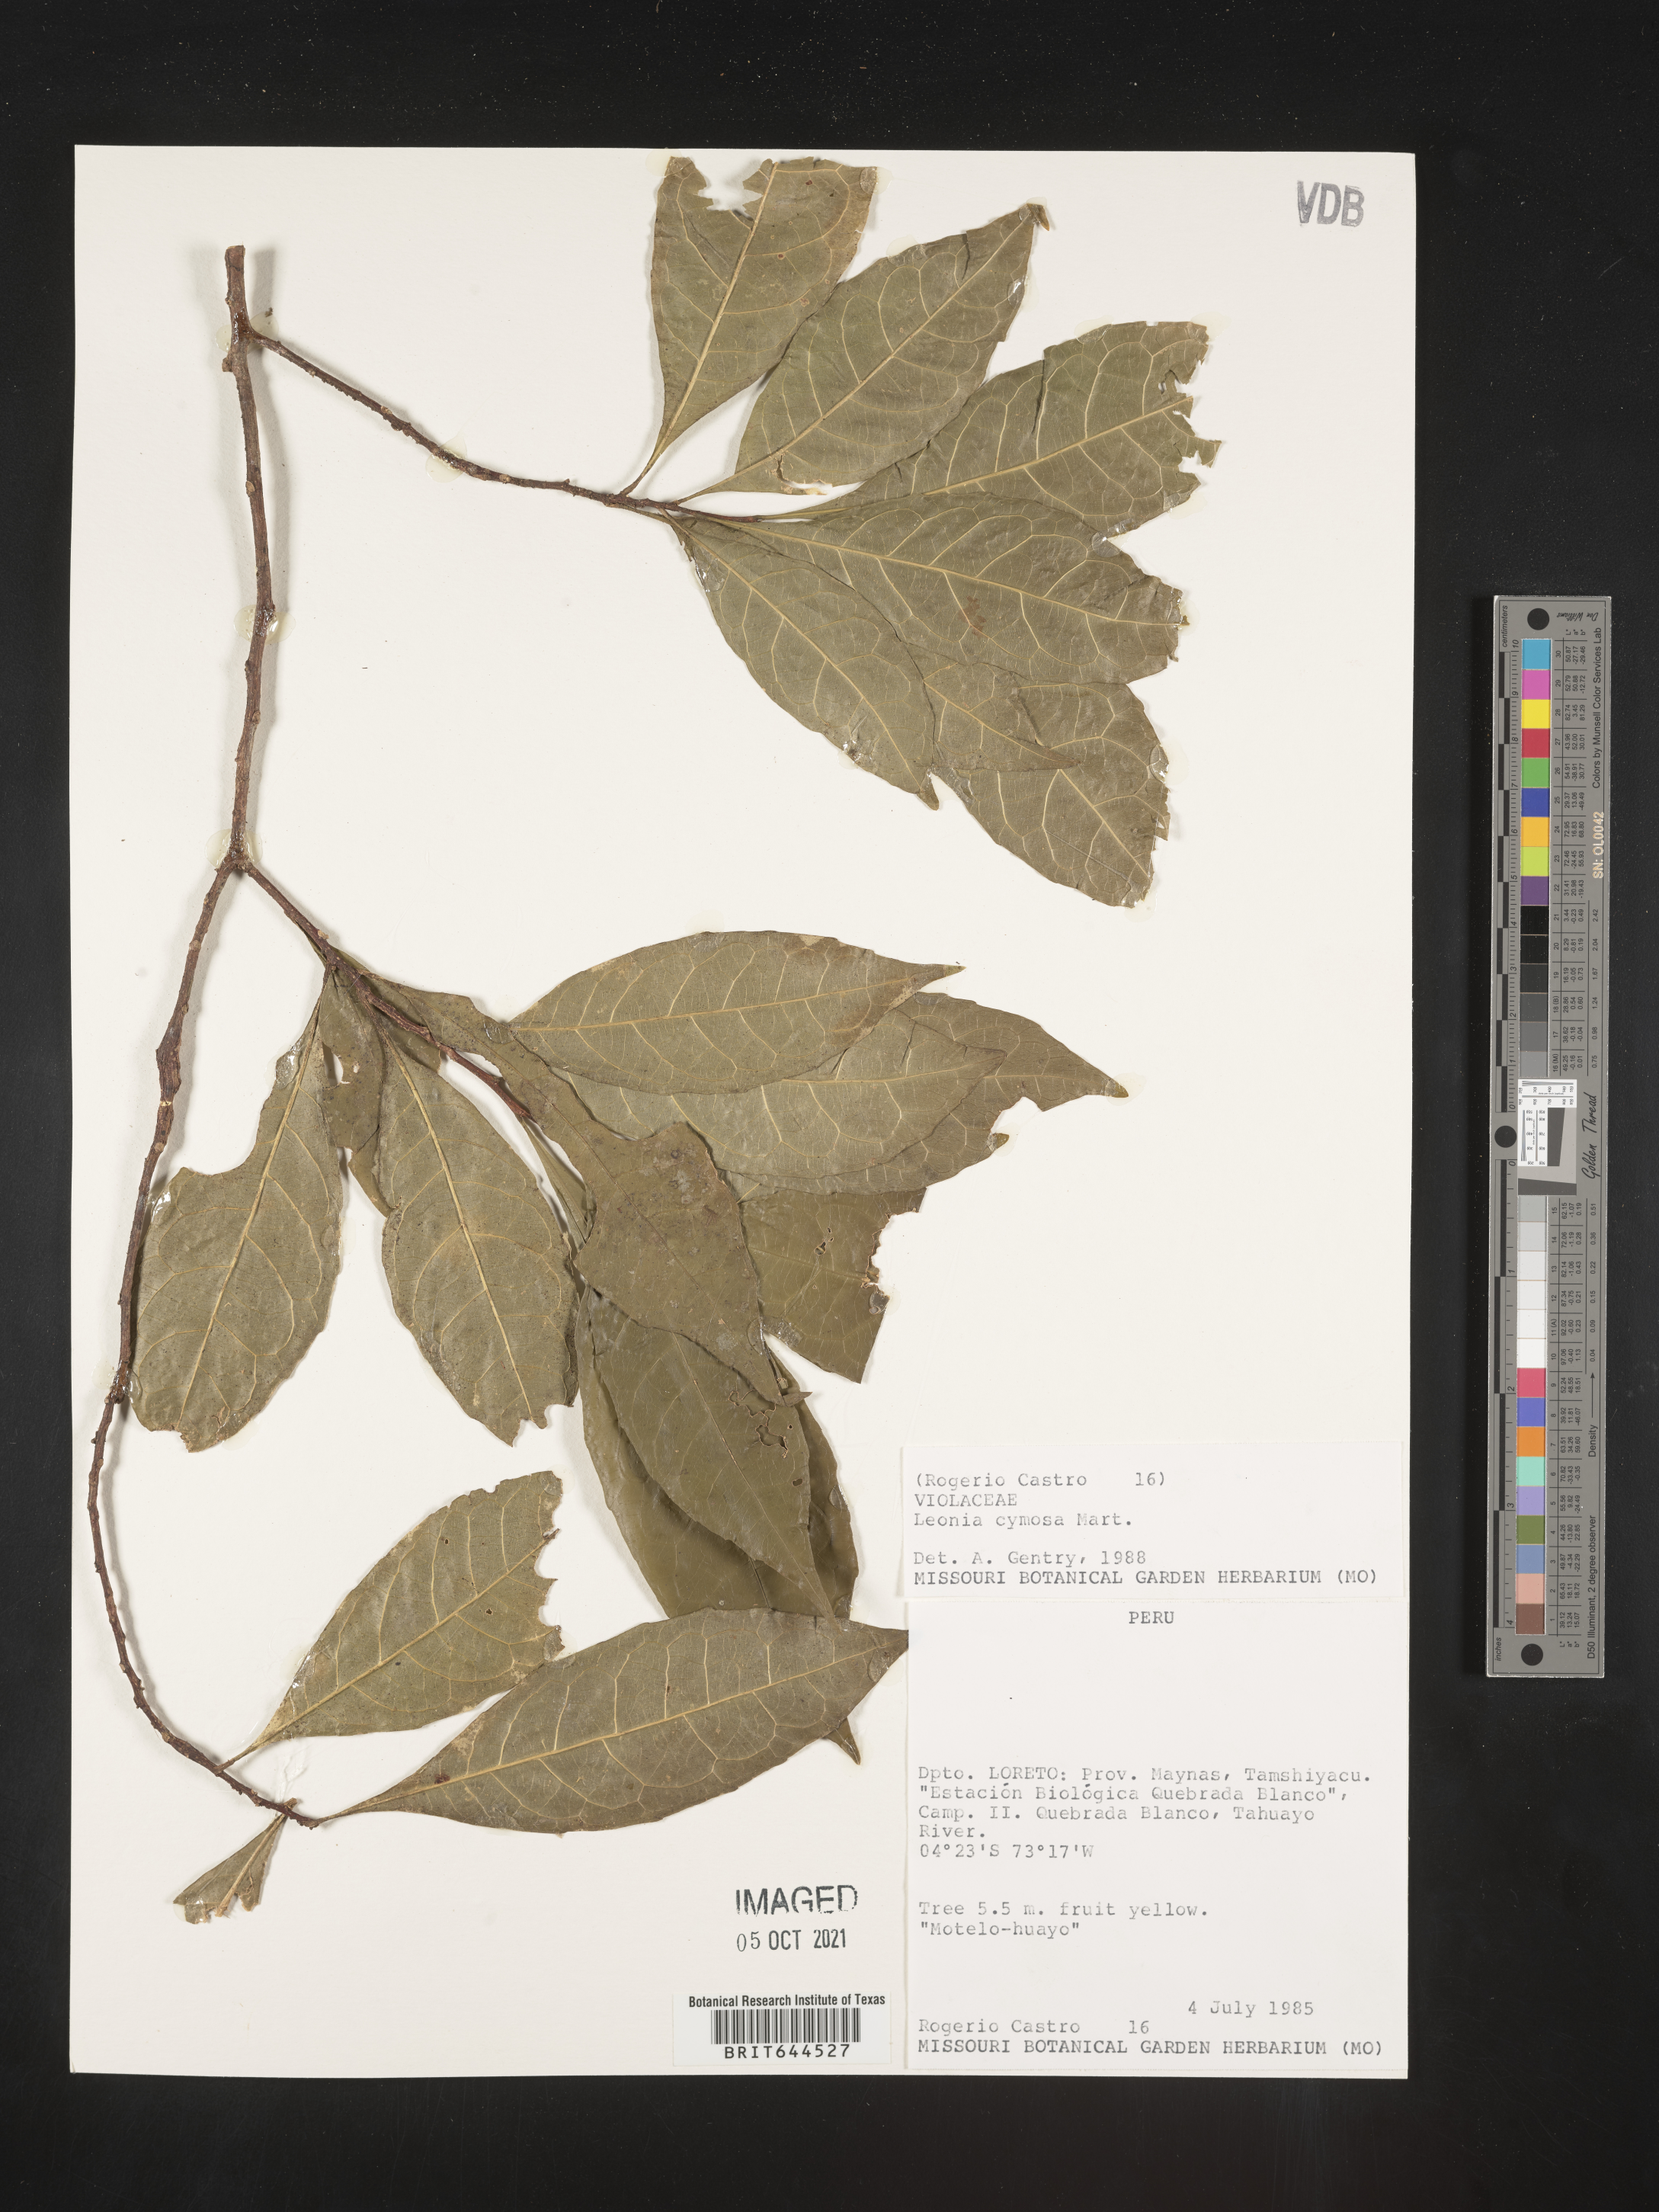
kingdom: Plantae
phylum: Tracheophyta
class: Magnoliopsida
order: Malpighiales
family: Violaceae
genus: Leonia
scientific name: Leonia
